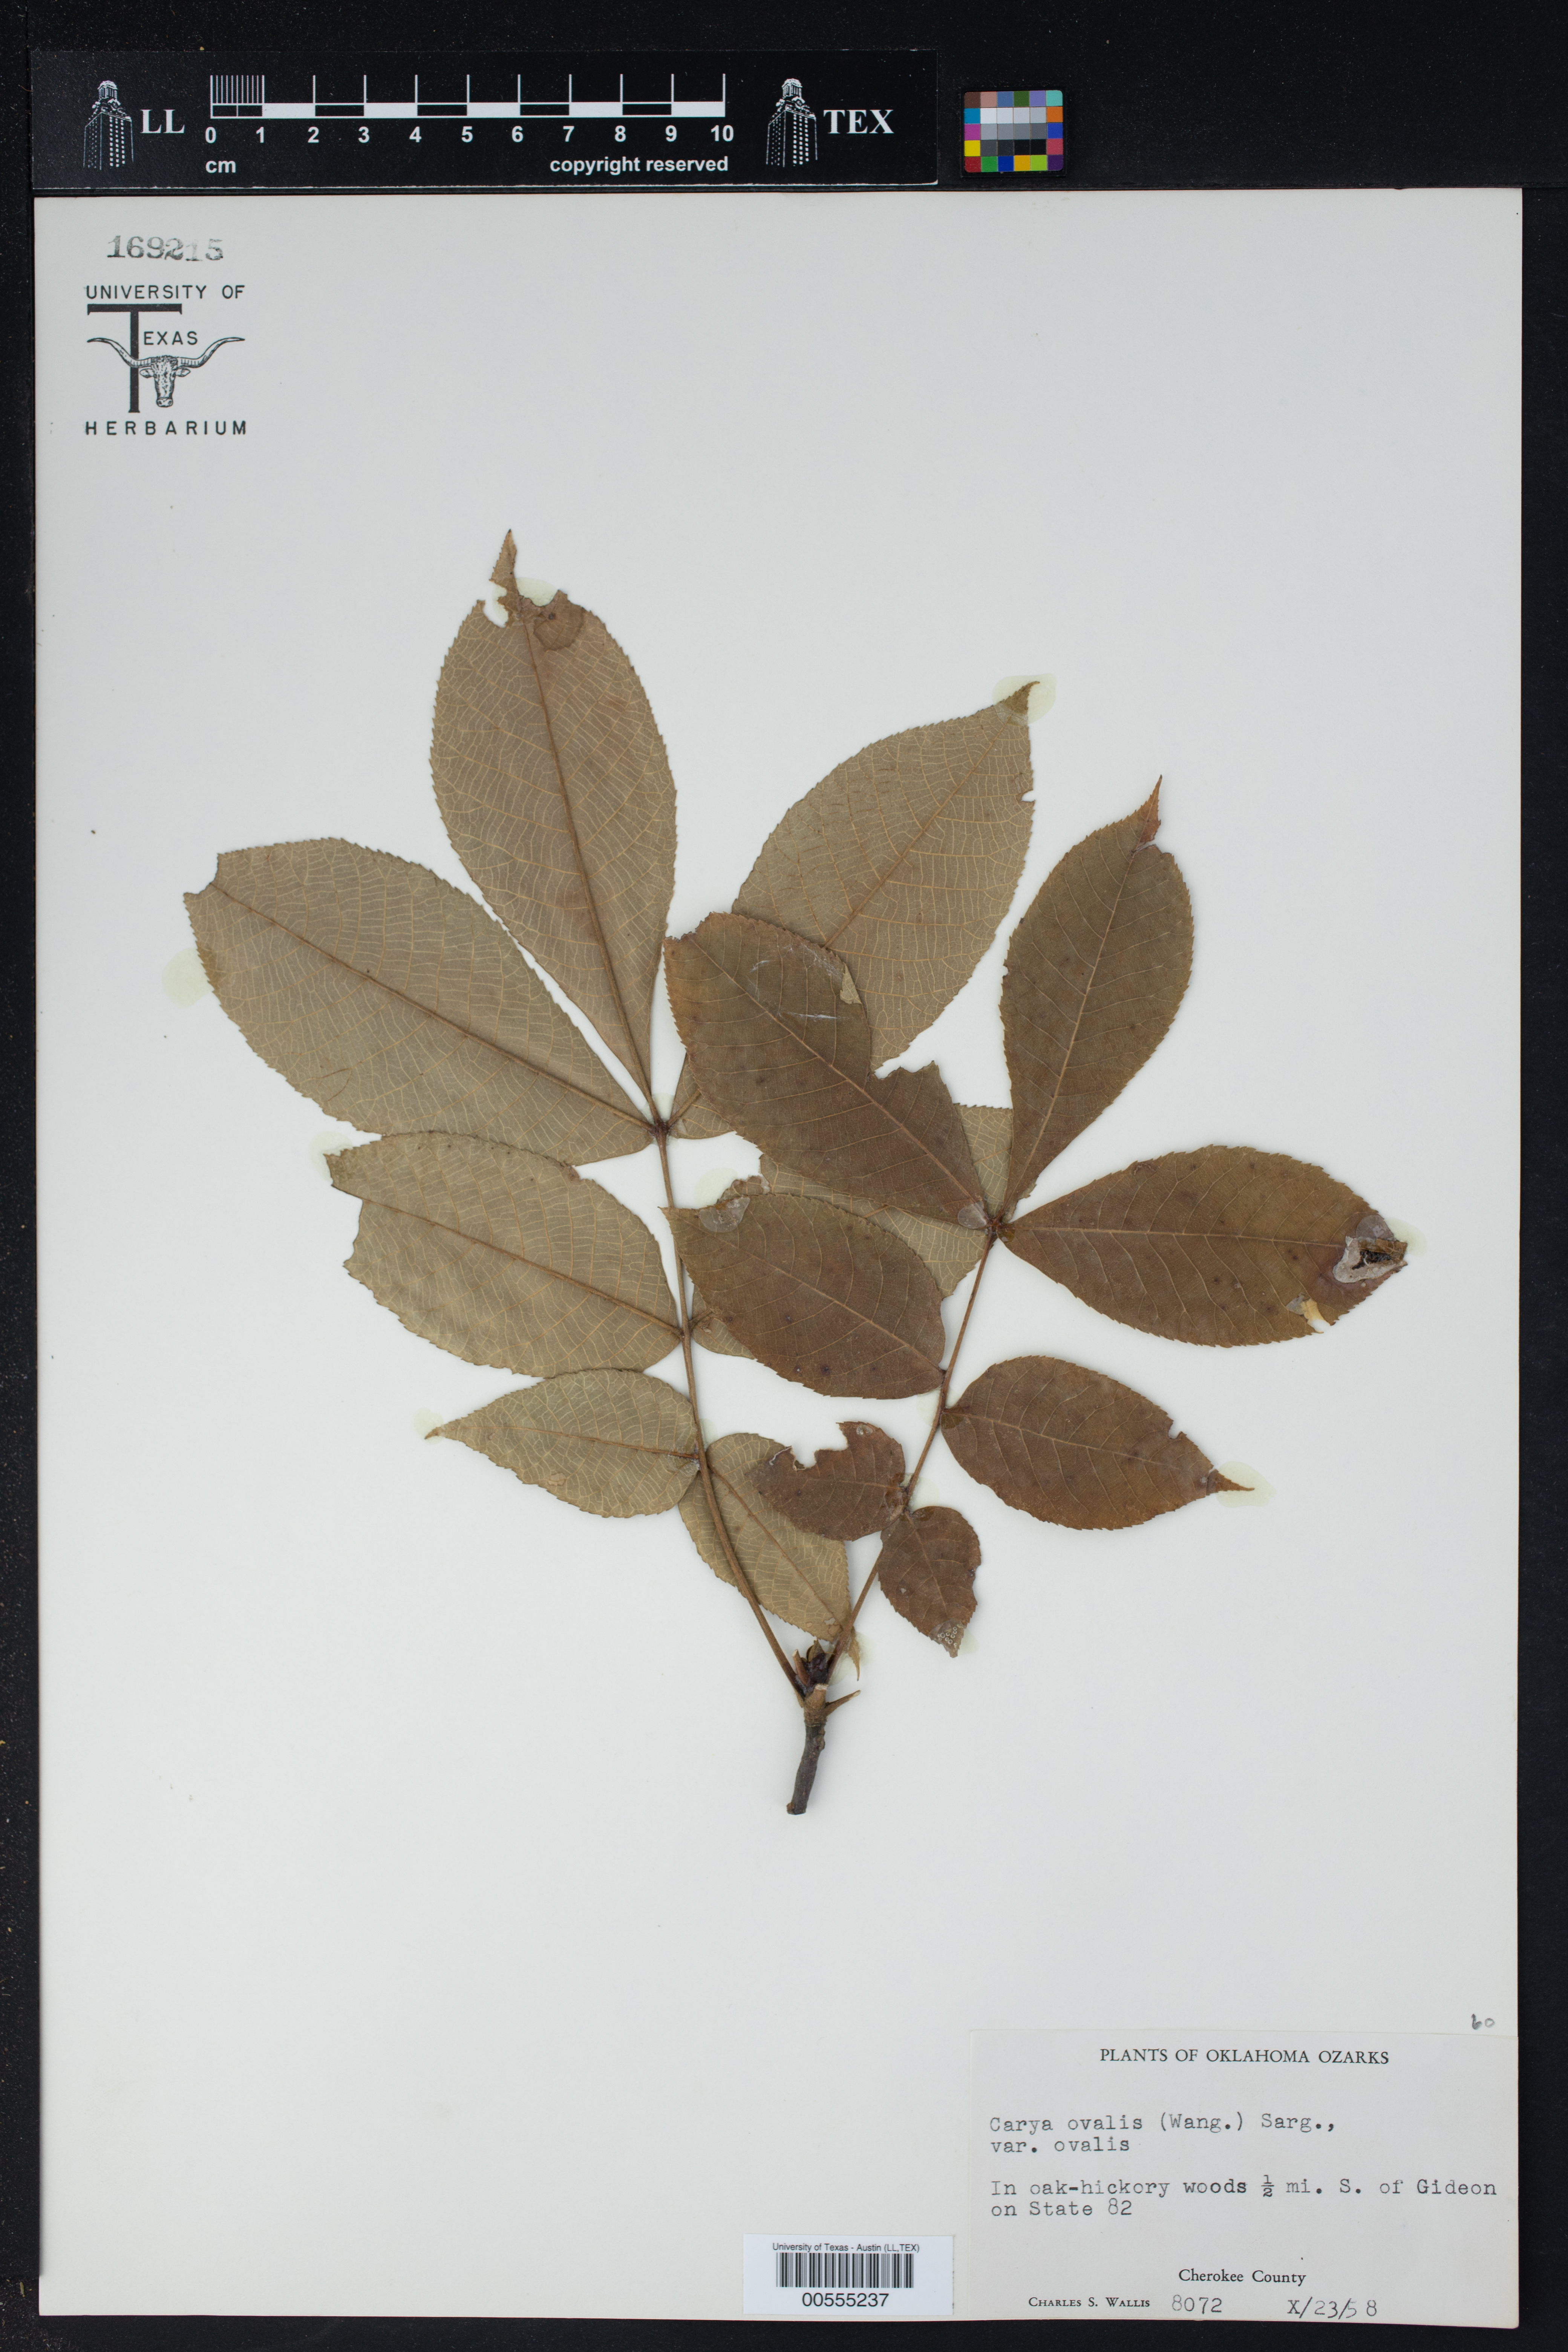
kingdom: Plantae
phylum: Tracheophyta
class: Magnoliopsida
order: Fagales
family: Juglandaceae
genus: Carya
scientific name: Carya ovalis
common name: False shagbark
